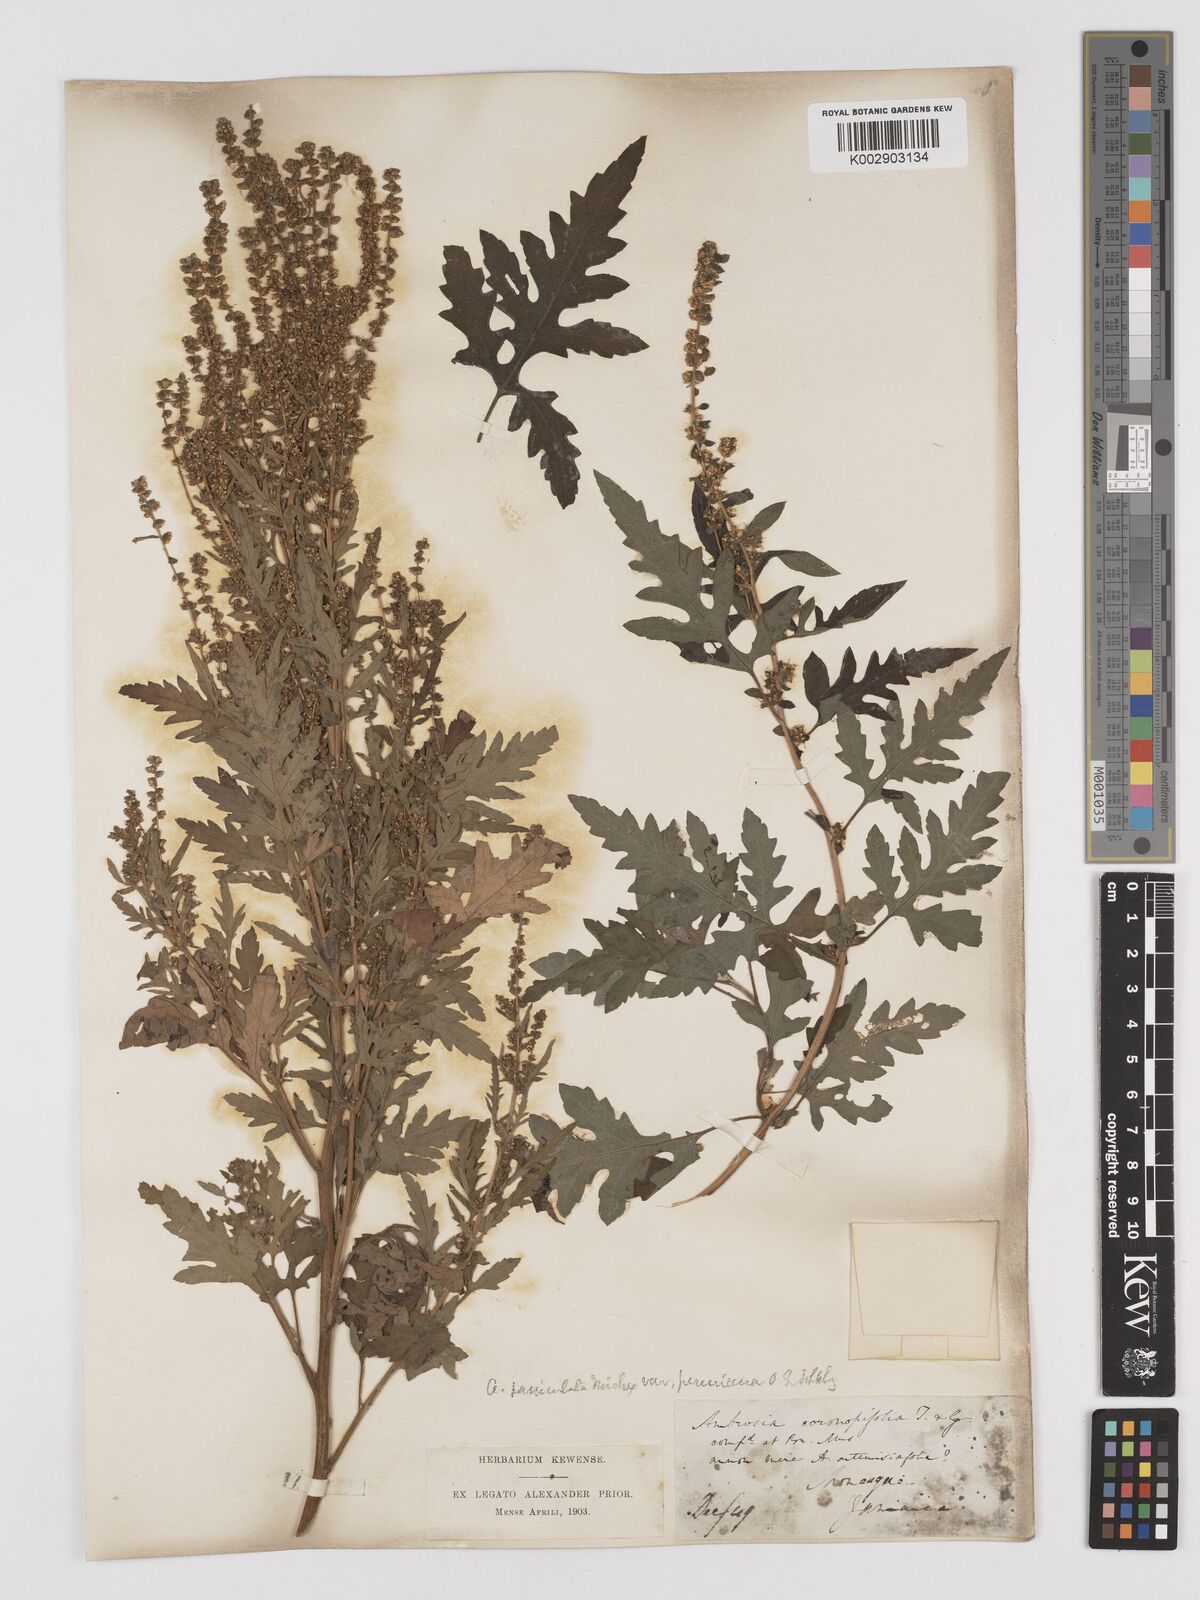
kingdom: Plantae
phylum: Tracheophyta
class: Magnoliopsida
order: Asterales
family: Asteraceae
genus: Ambrosia
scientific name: Ambrosia psilostachya
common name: Perennial ragweed
